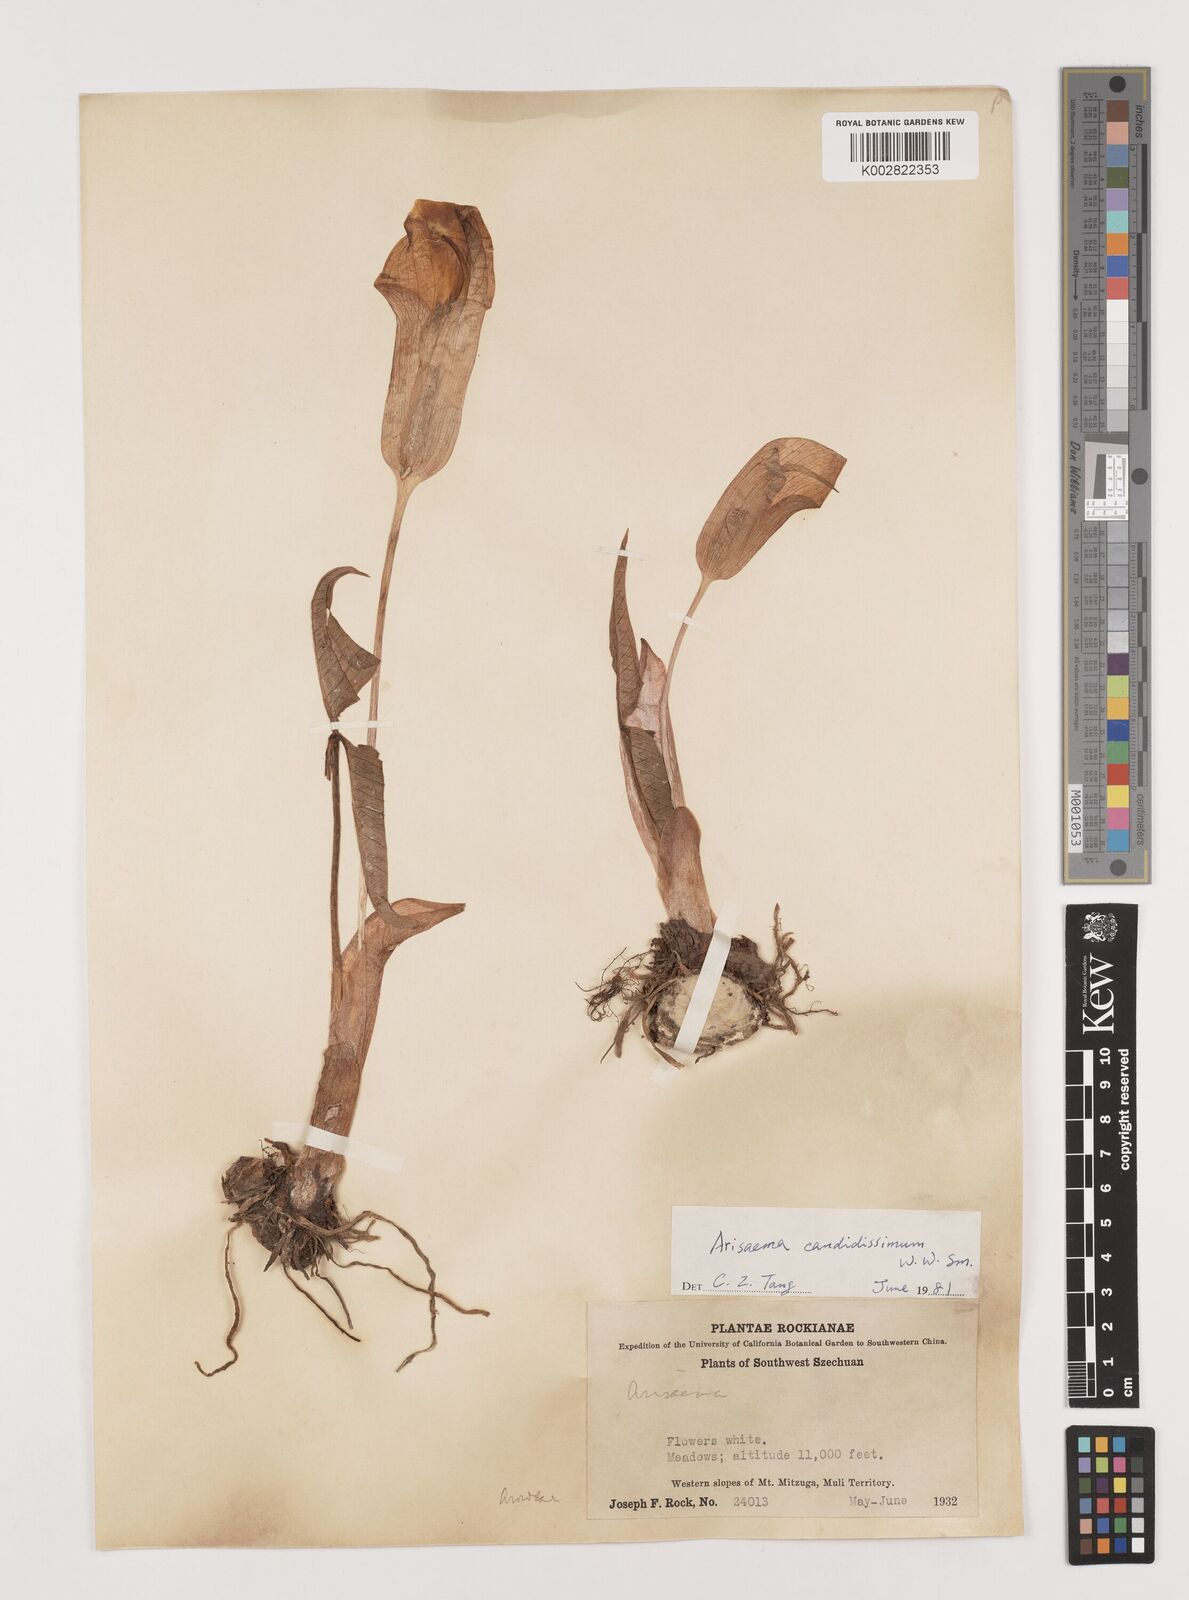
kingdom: Plantae
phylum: Tracheophyta
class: Liliopsida
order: Alismatales
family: Araceae
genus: Arisaema
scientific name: Arisaema candidissimum
